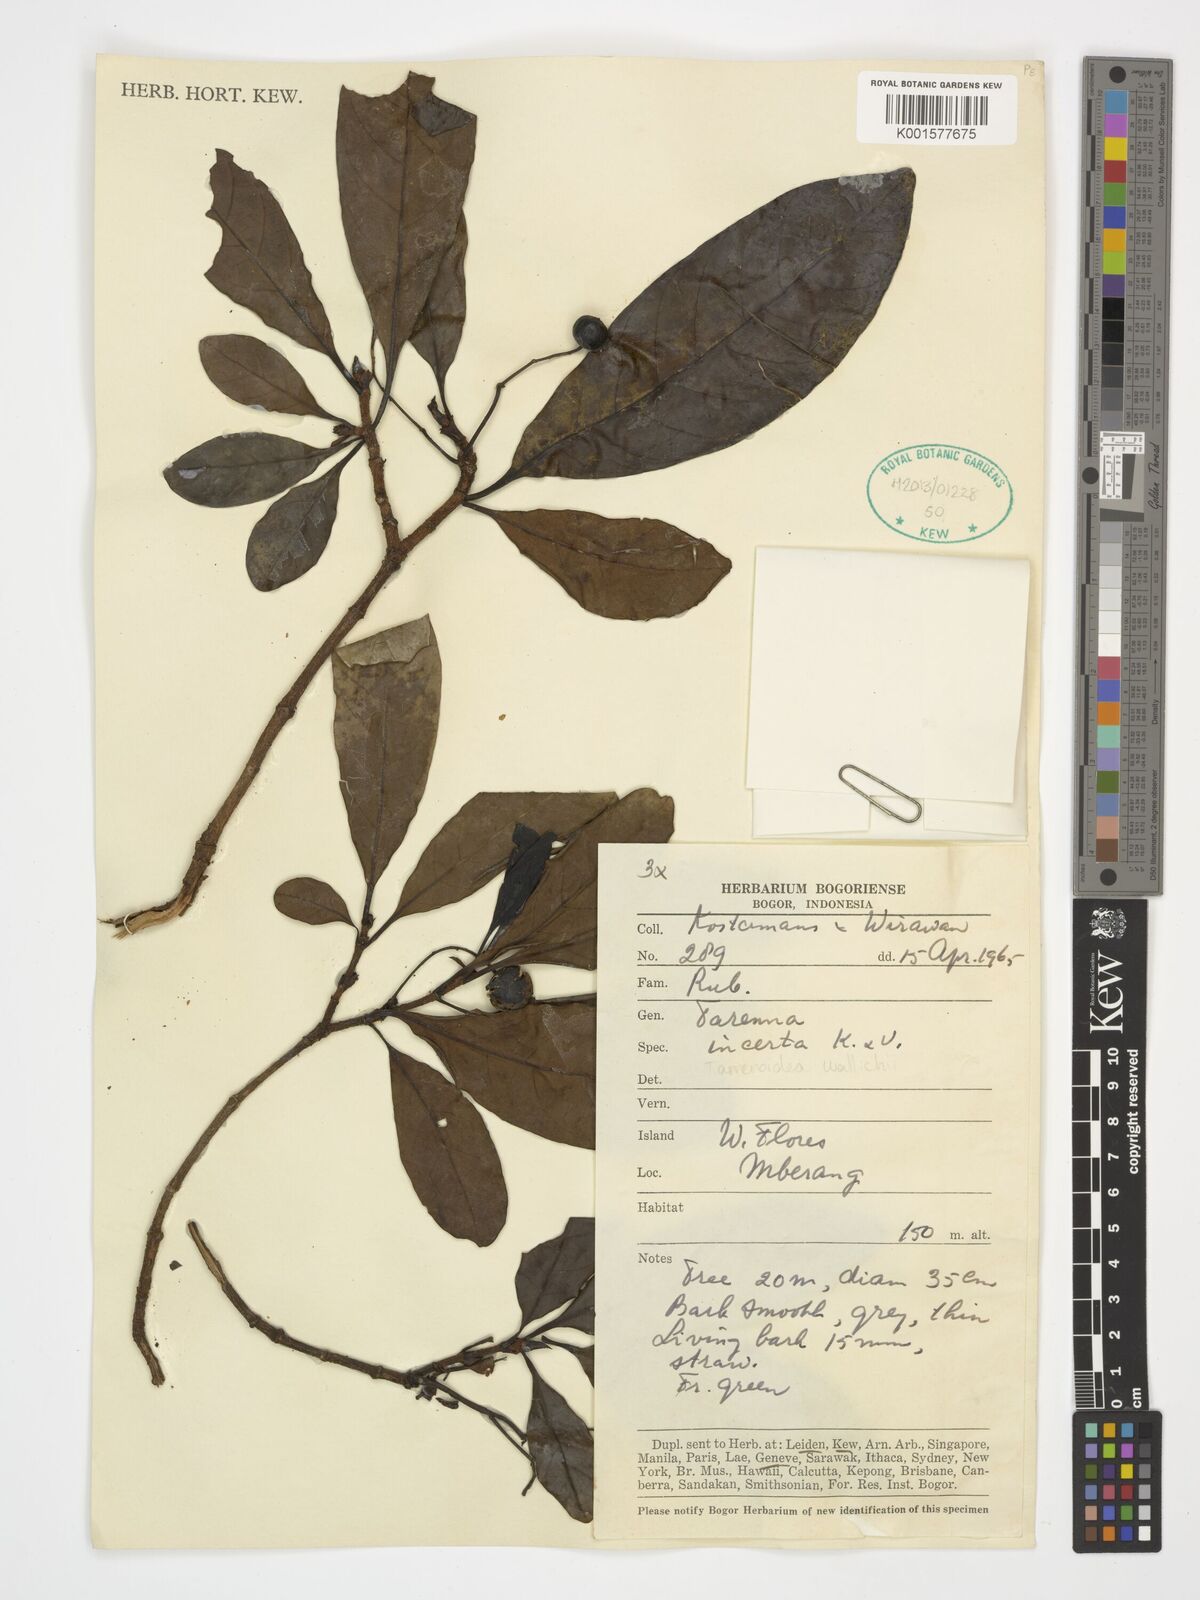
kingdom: Plantae
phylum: Tracheophyta
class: Magnoliopsida
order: Gentianales
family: Rubiaceae
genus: Tarennoidea
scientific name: Tarennoidea wallichii
